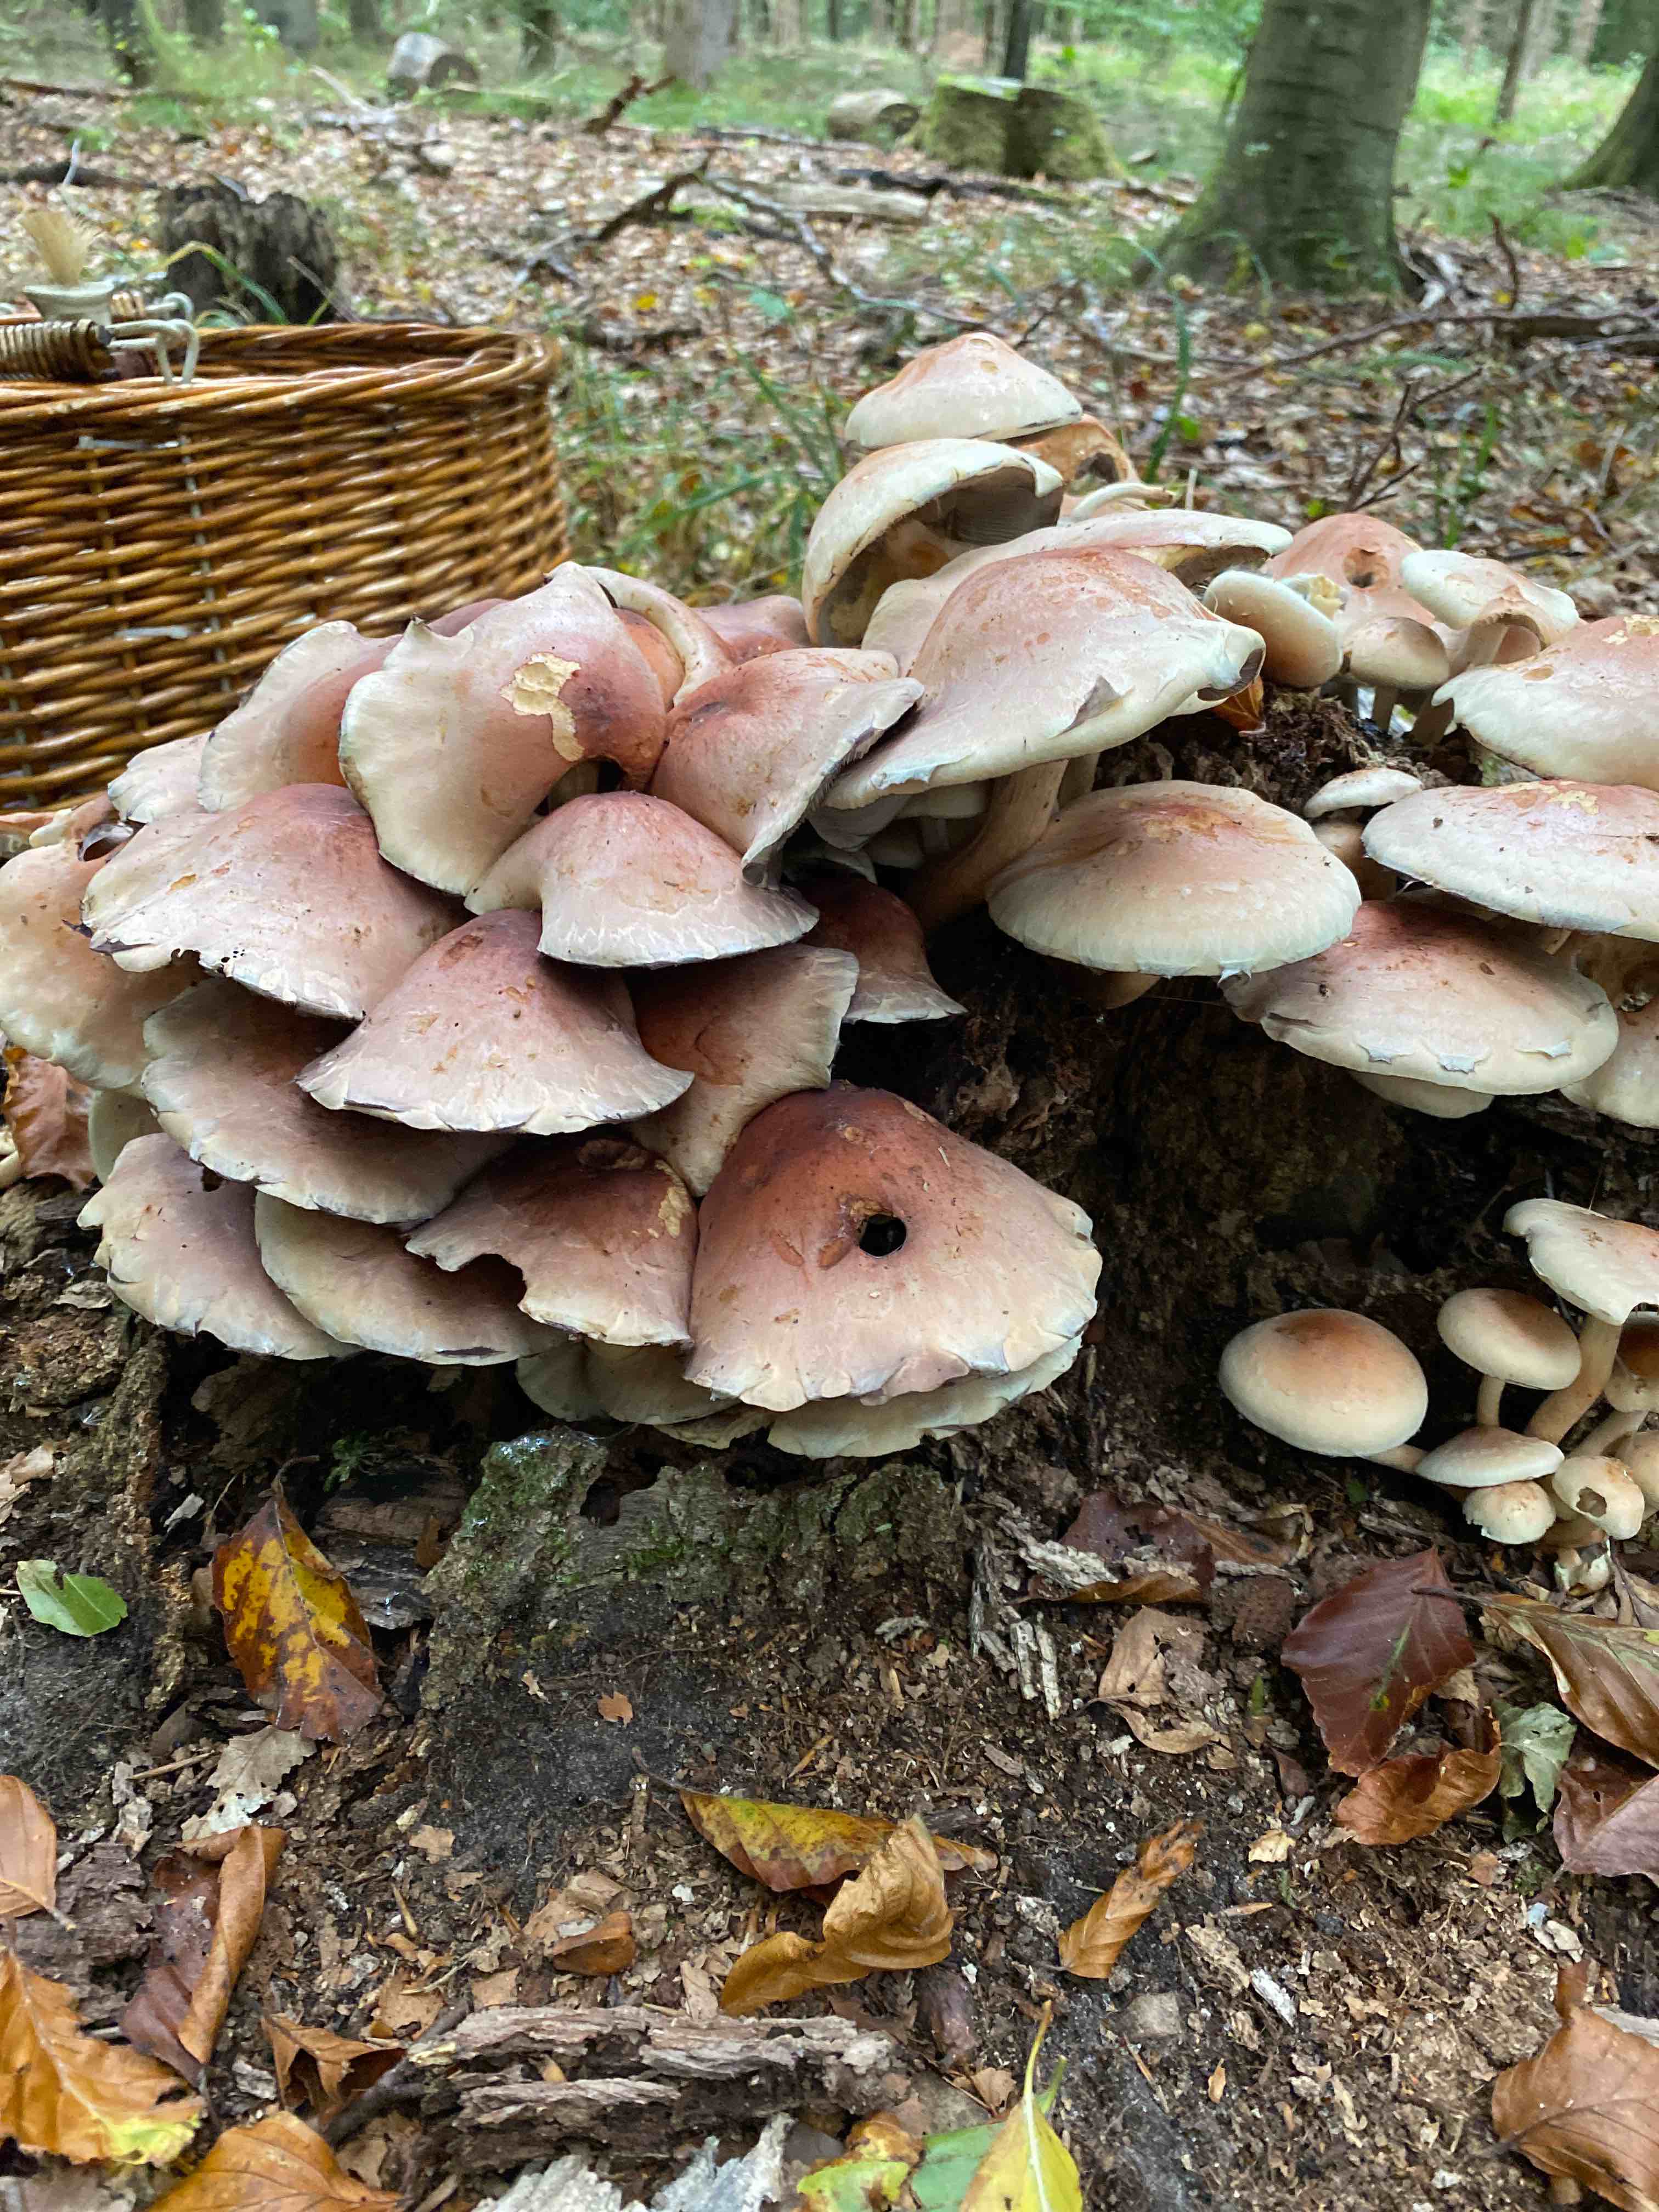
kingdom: Fungi
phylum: Basidiomycota
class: Agaricomycetes
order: Agaricales
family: Strophariaceae
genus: Hypholoma
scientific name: Hypholoma lateritium
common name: teglrød svovlhat
